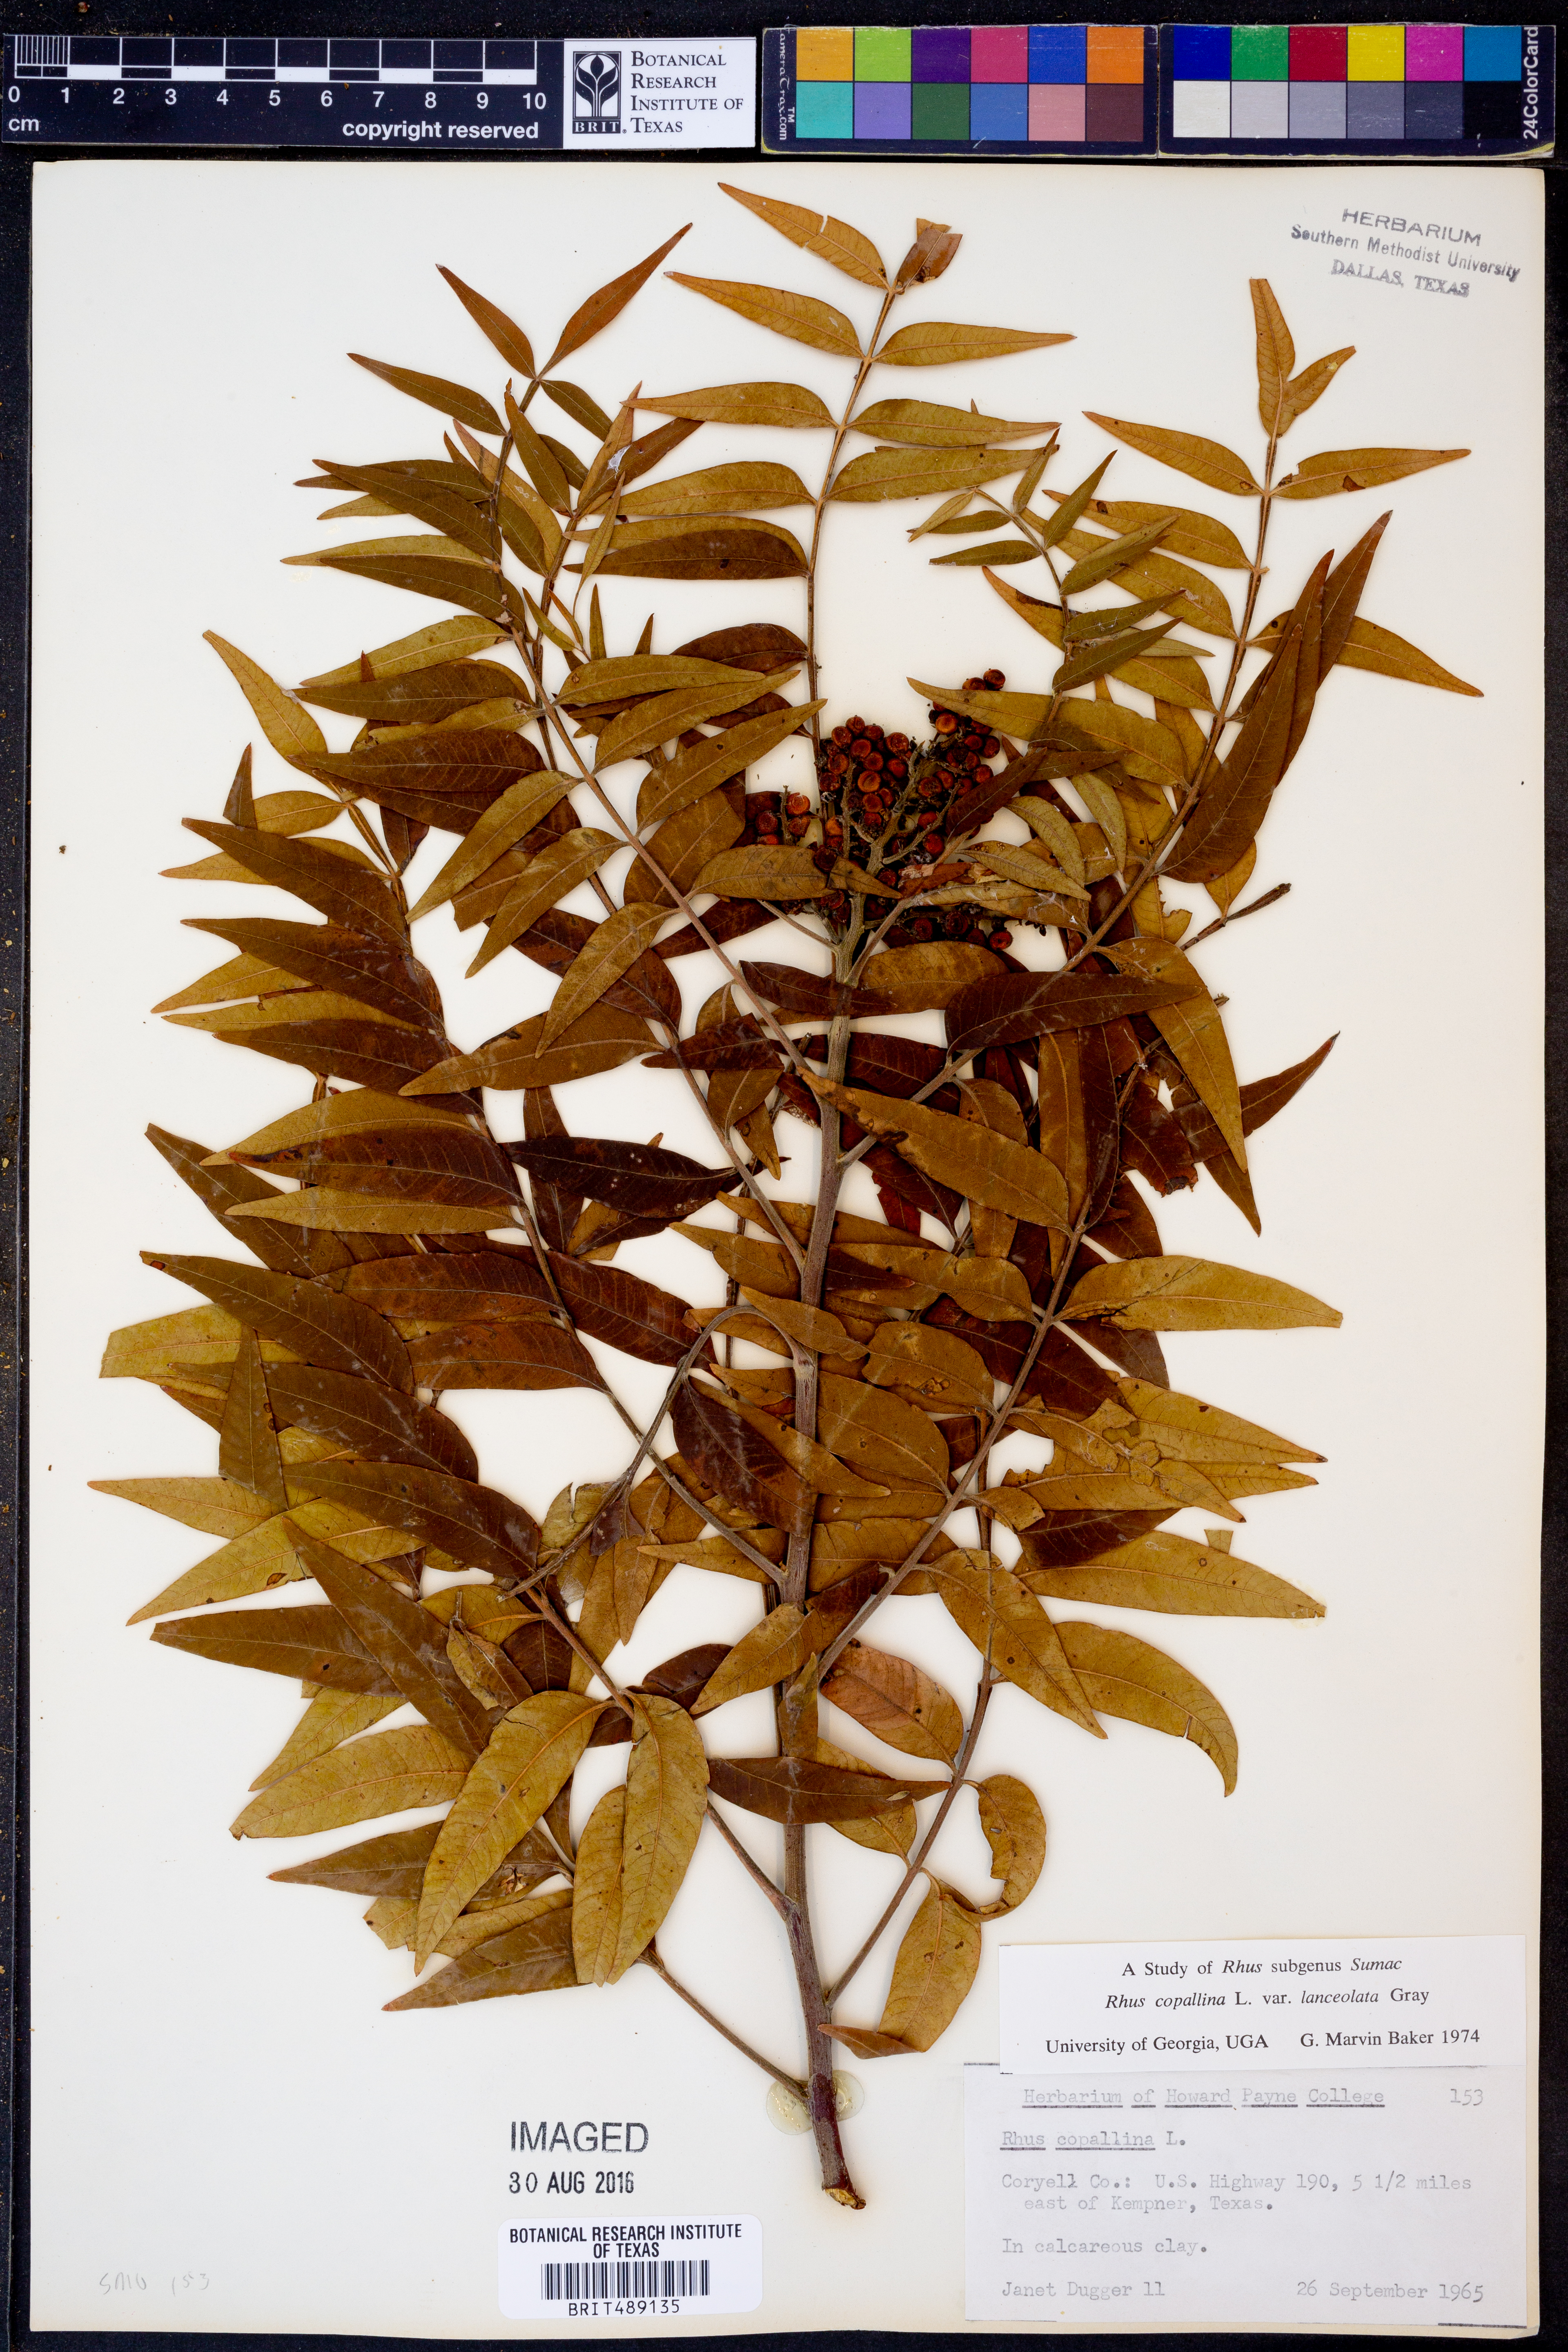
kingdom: Plantae
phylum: Tracheophyta
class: Magnoliopsida
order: Sapindales
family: Anacardiaceae
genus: Rhus
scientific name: Rhus lanceolata
